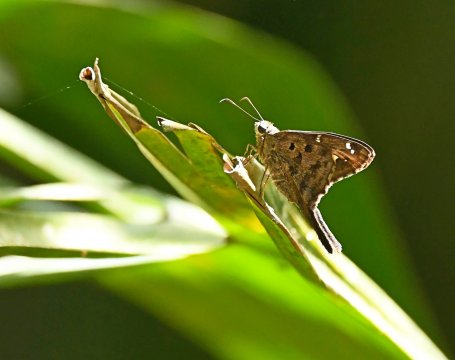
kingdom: Animalia
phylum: Arthropoda
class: Insecta
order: Lepidoptera
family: Hesperiidae
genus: Urbanus
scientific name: Urbanus dorantes
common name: Dorantes Longtail
